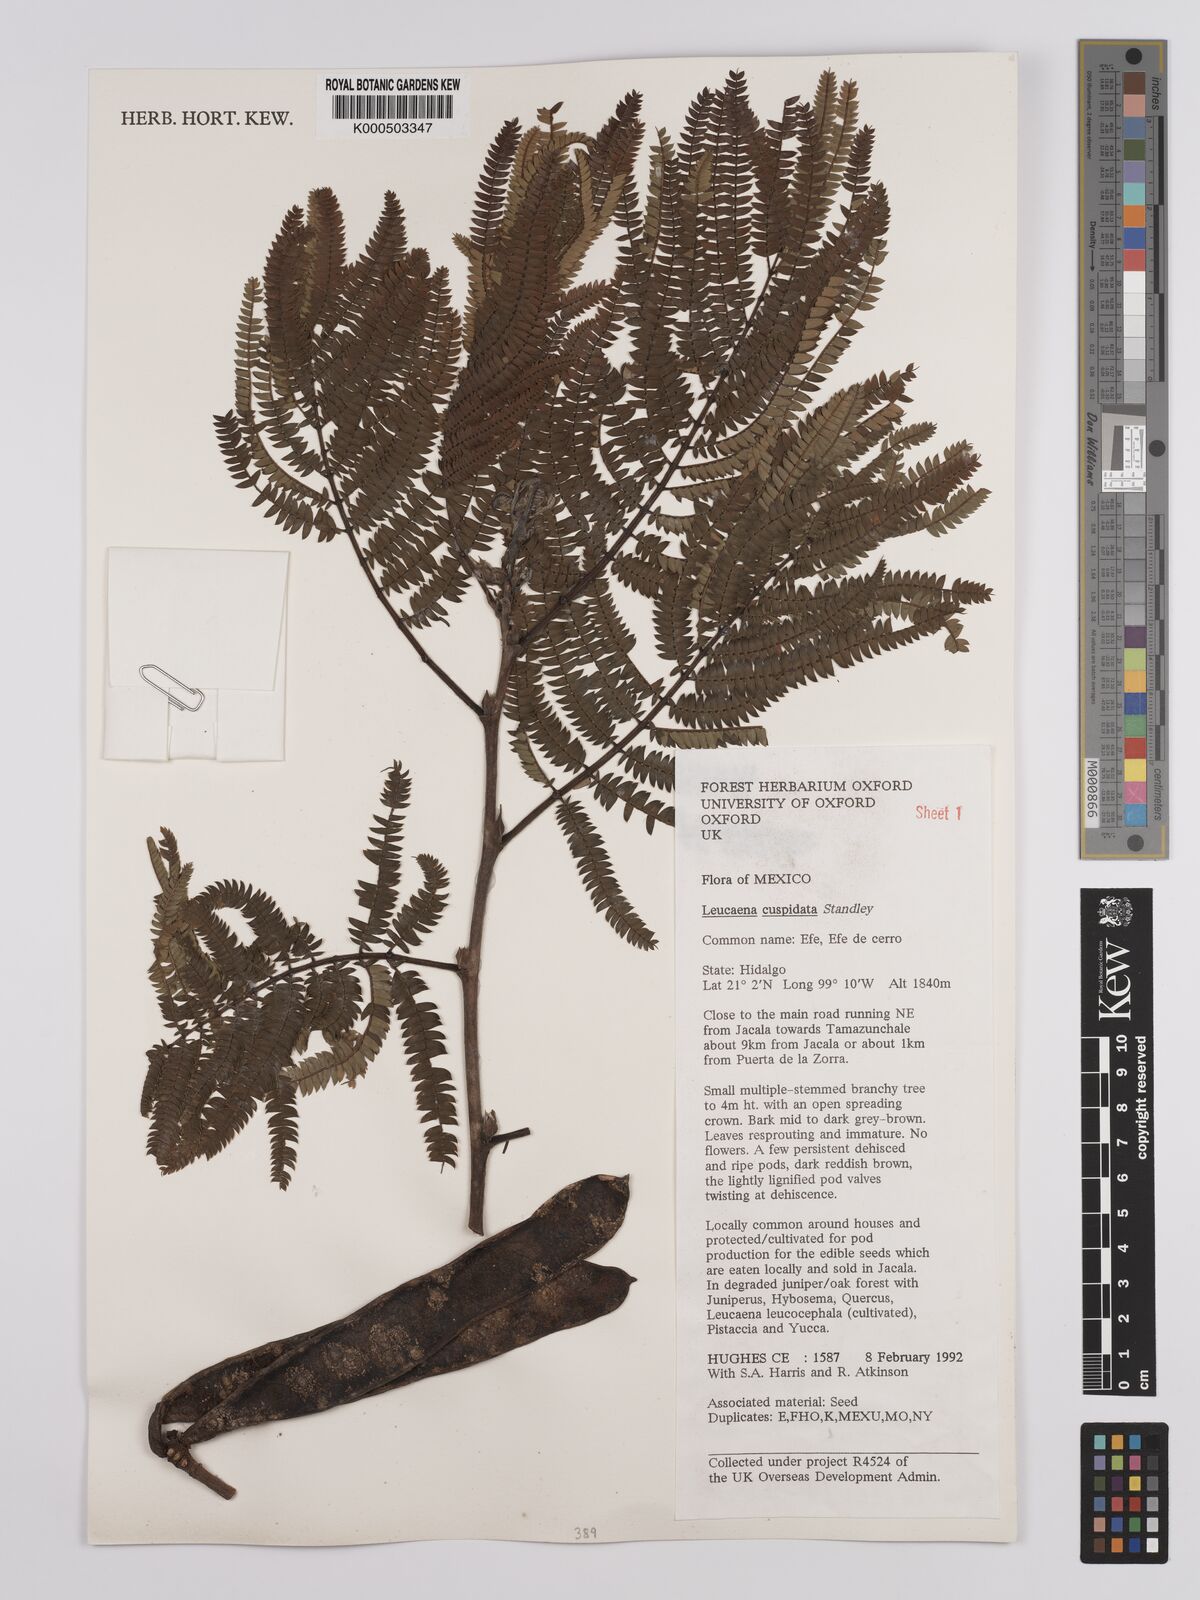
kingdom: Plantae
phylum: Tracheophyta
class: Magnoliopsida
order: Fabales
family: Fabaceae
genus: Leucaena
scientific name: Leucaena cuspidata
